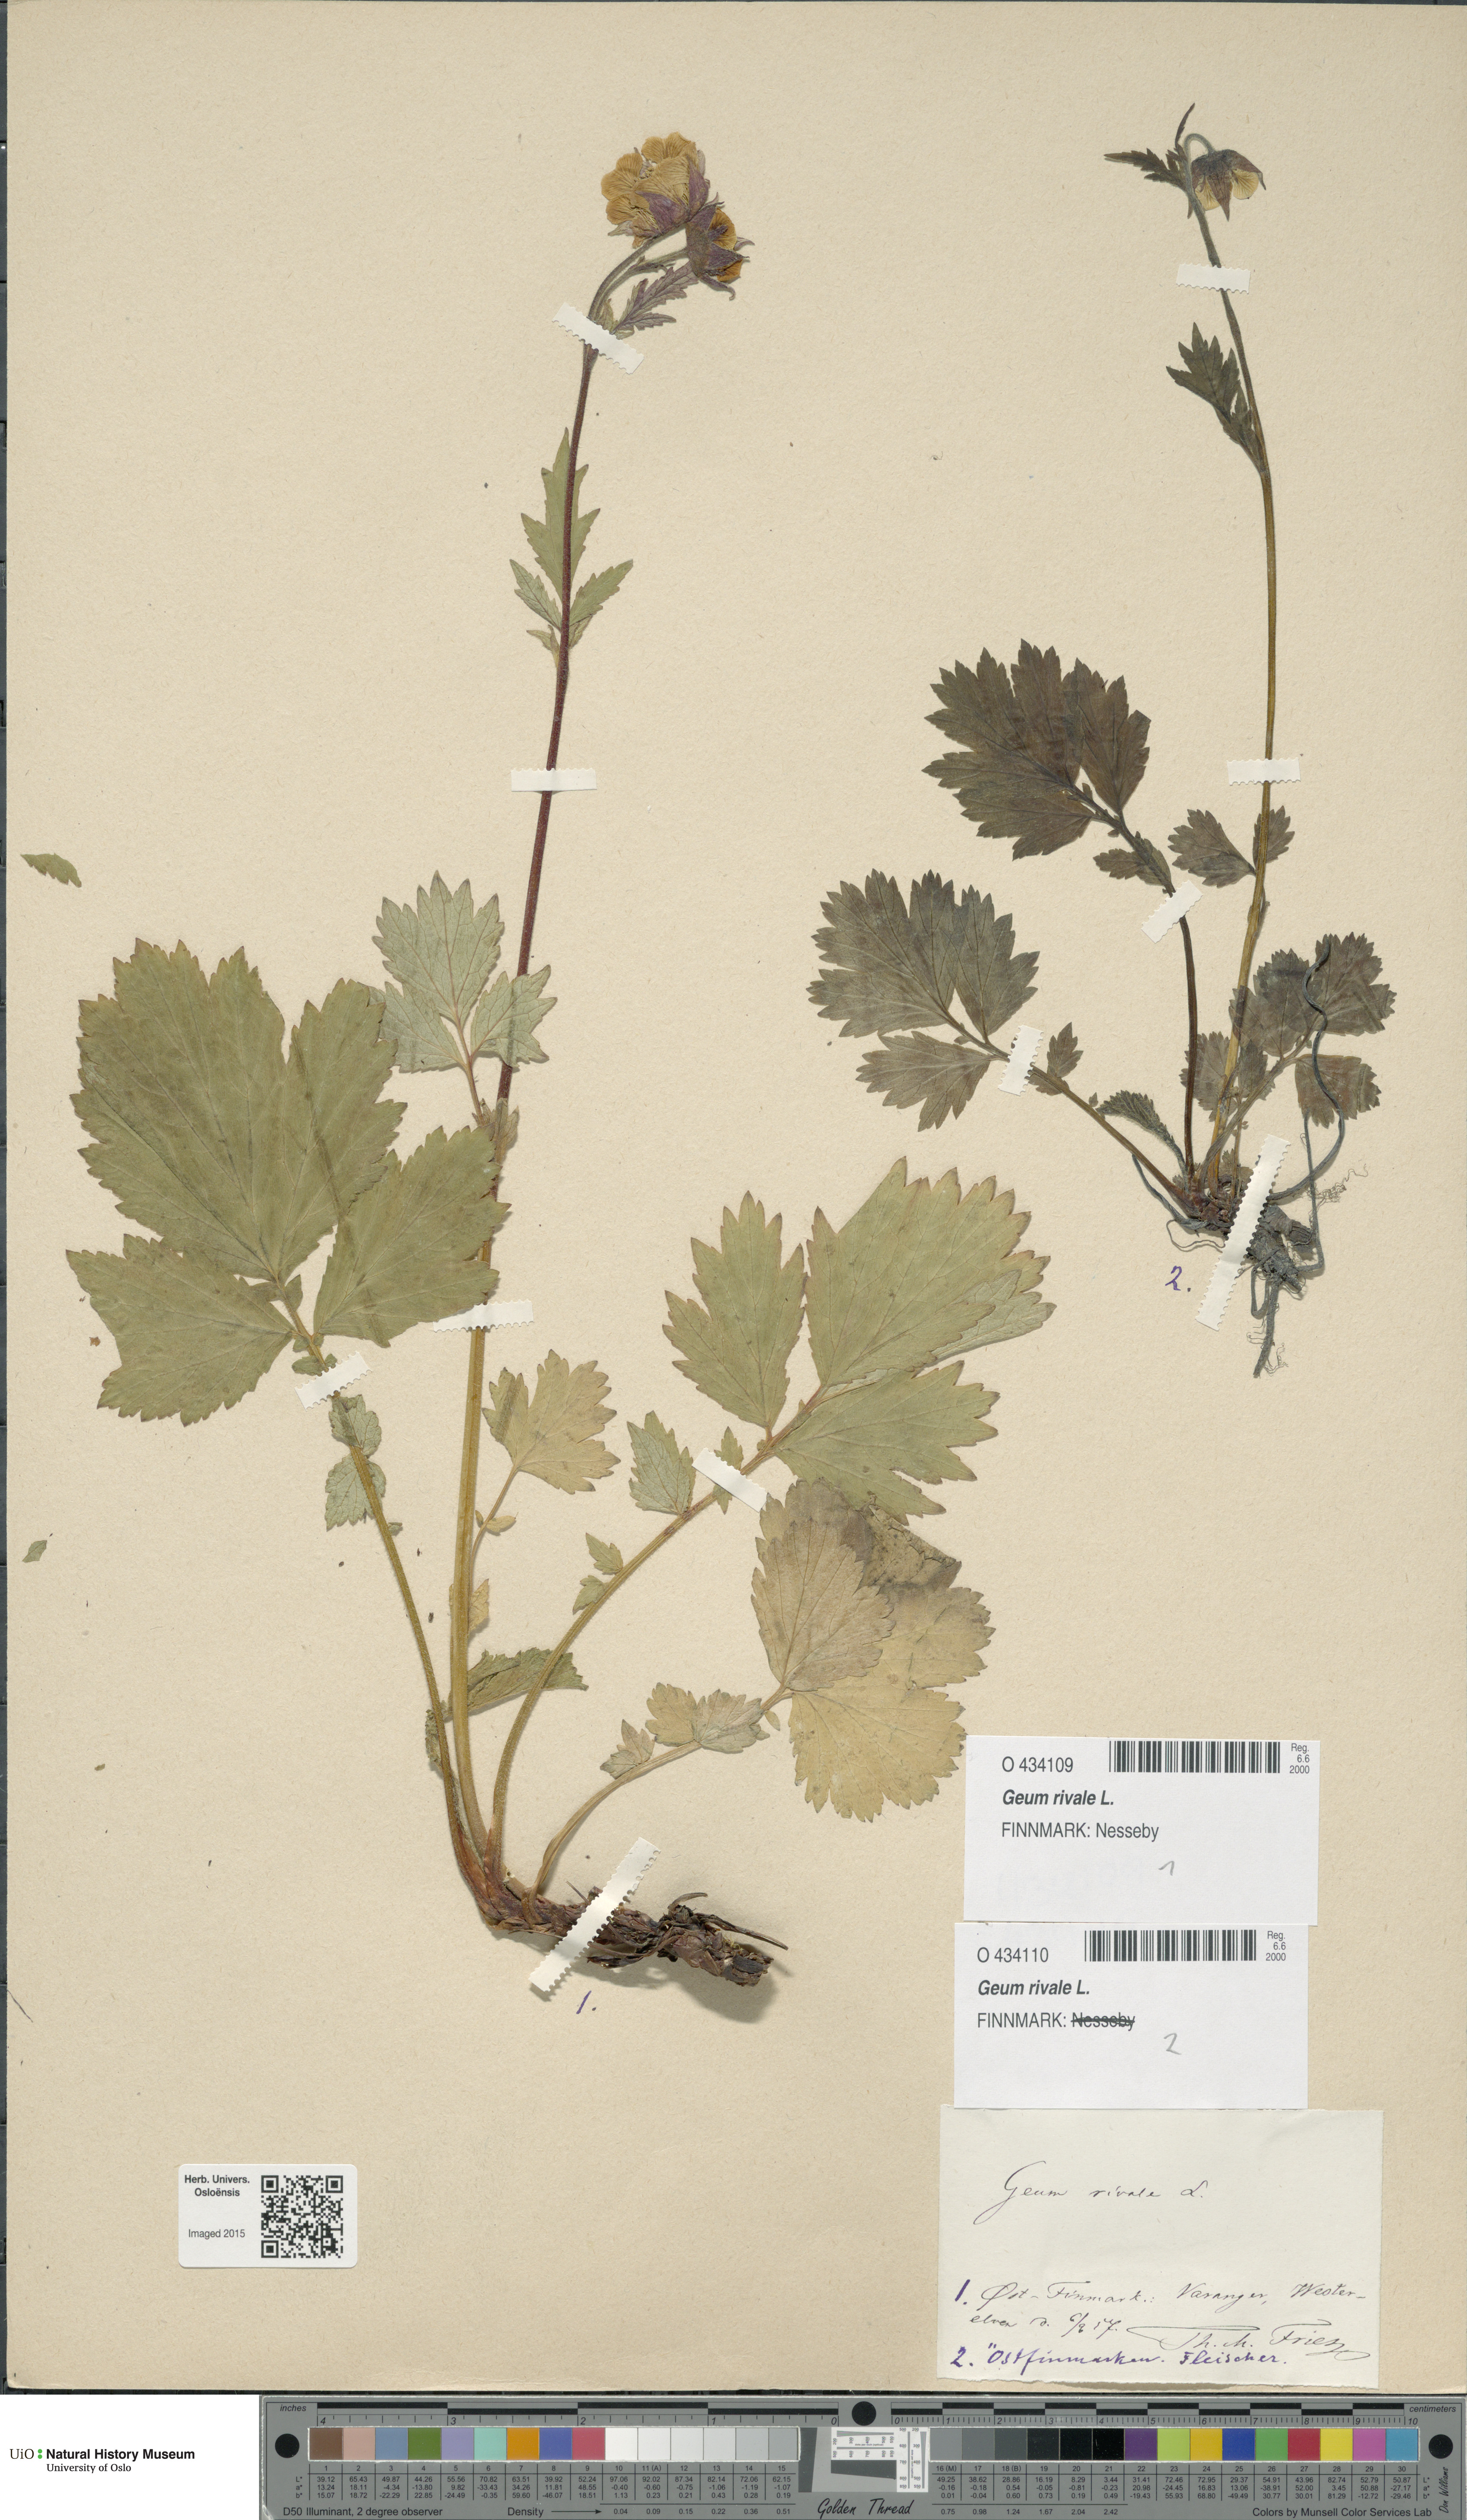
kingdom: Plantae
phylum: Tracheophyta
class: Magnoliopsida
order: Rosales
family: Rosaceae
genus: Geum
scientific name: Geum rivale
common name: Water avens
